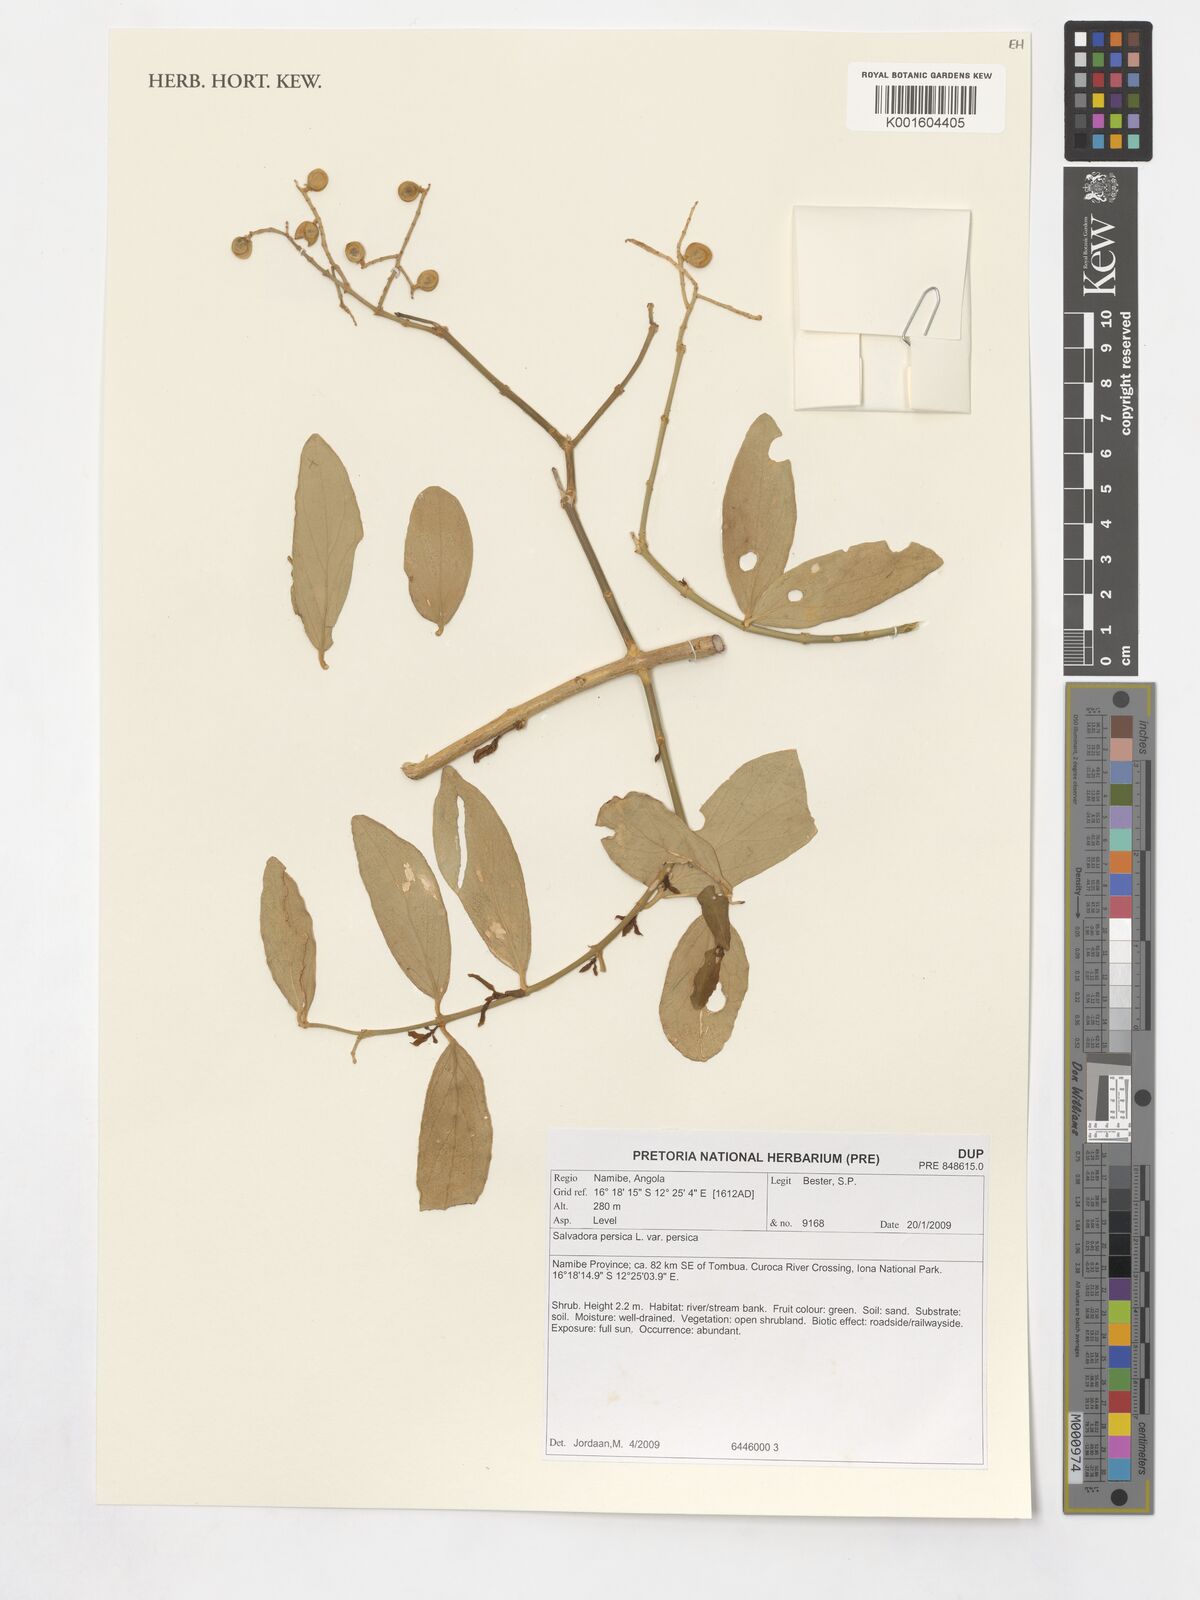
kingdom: Plantae
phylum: Tracheophyta
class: Magnoliopsida
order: Brassicales
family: Salvadoraceae
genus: Salvadora
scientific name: Salvadora persica
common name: Toothbrushtree
